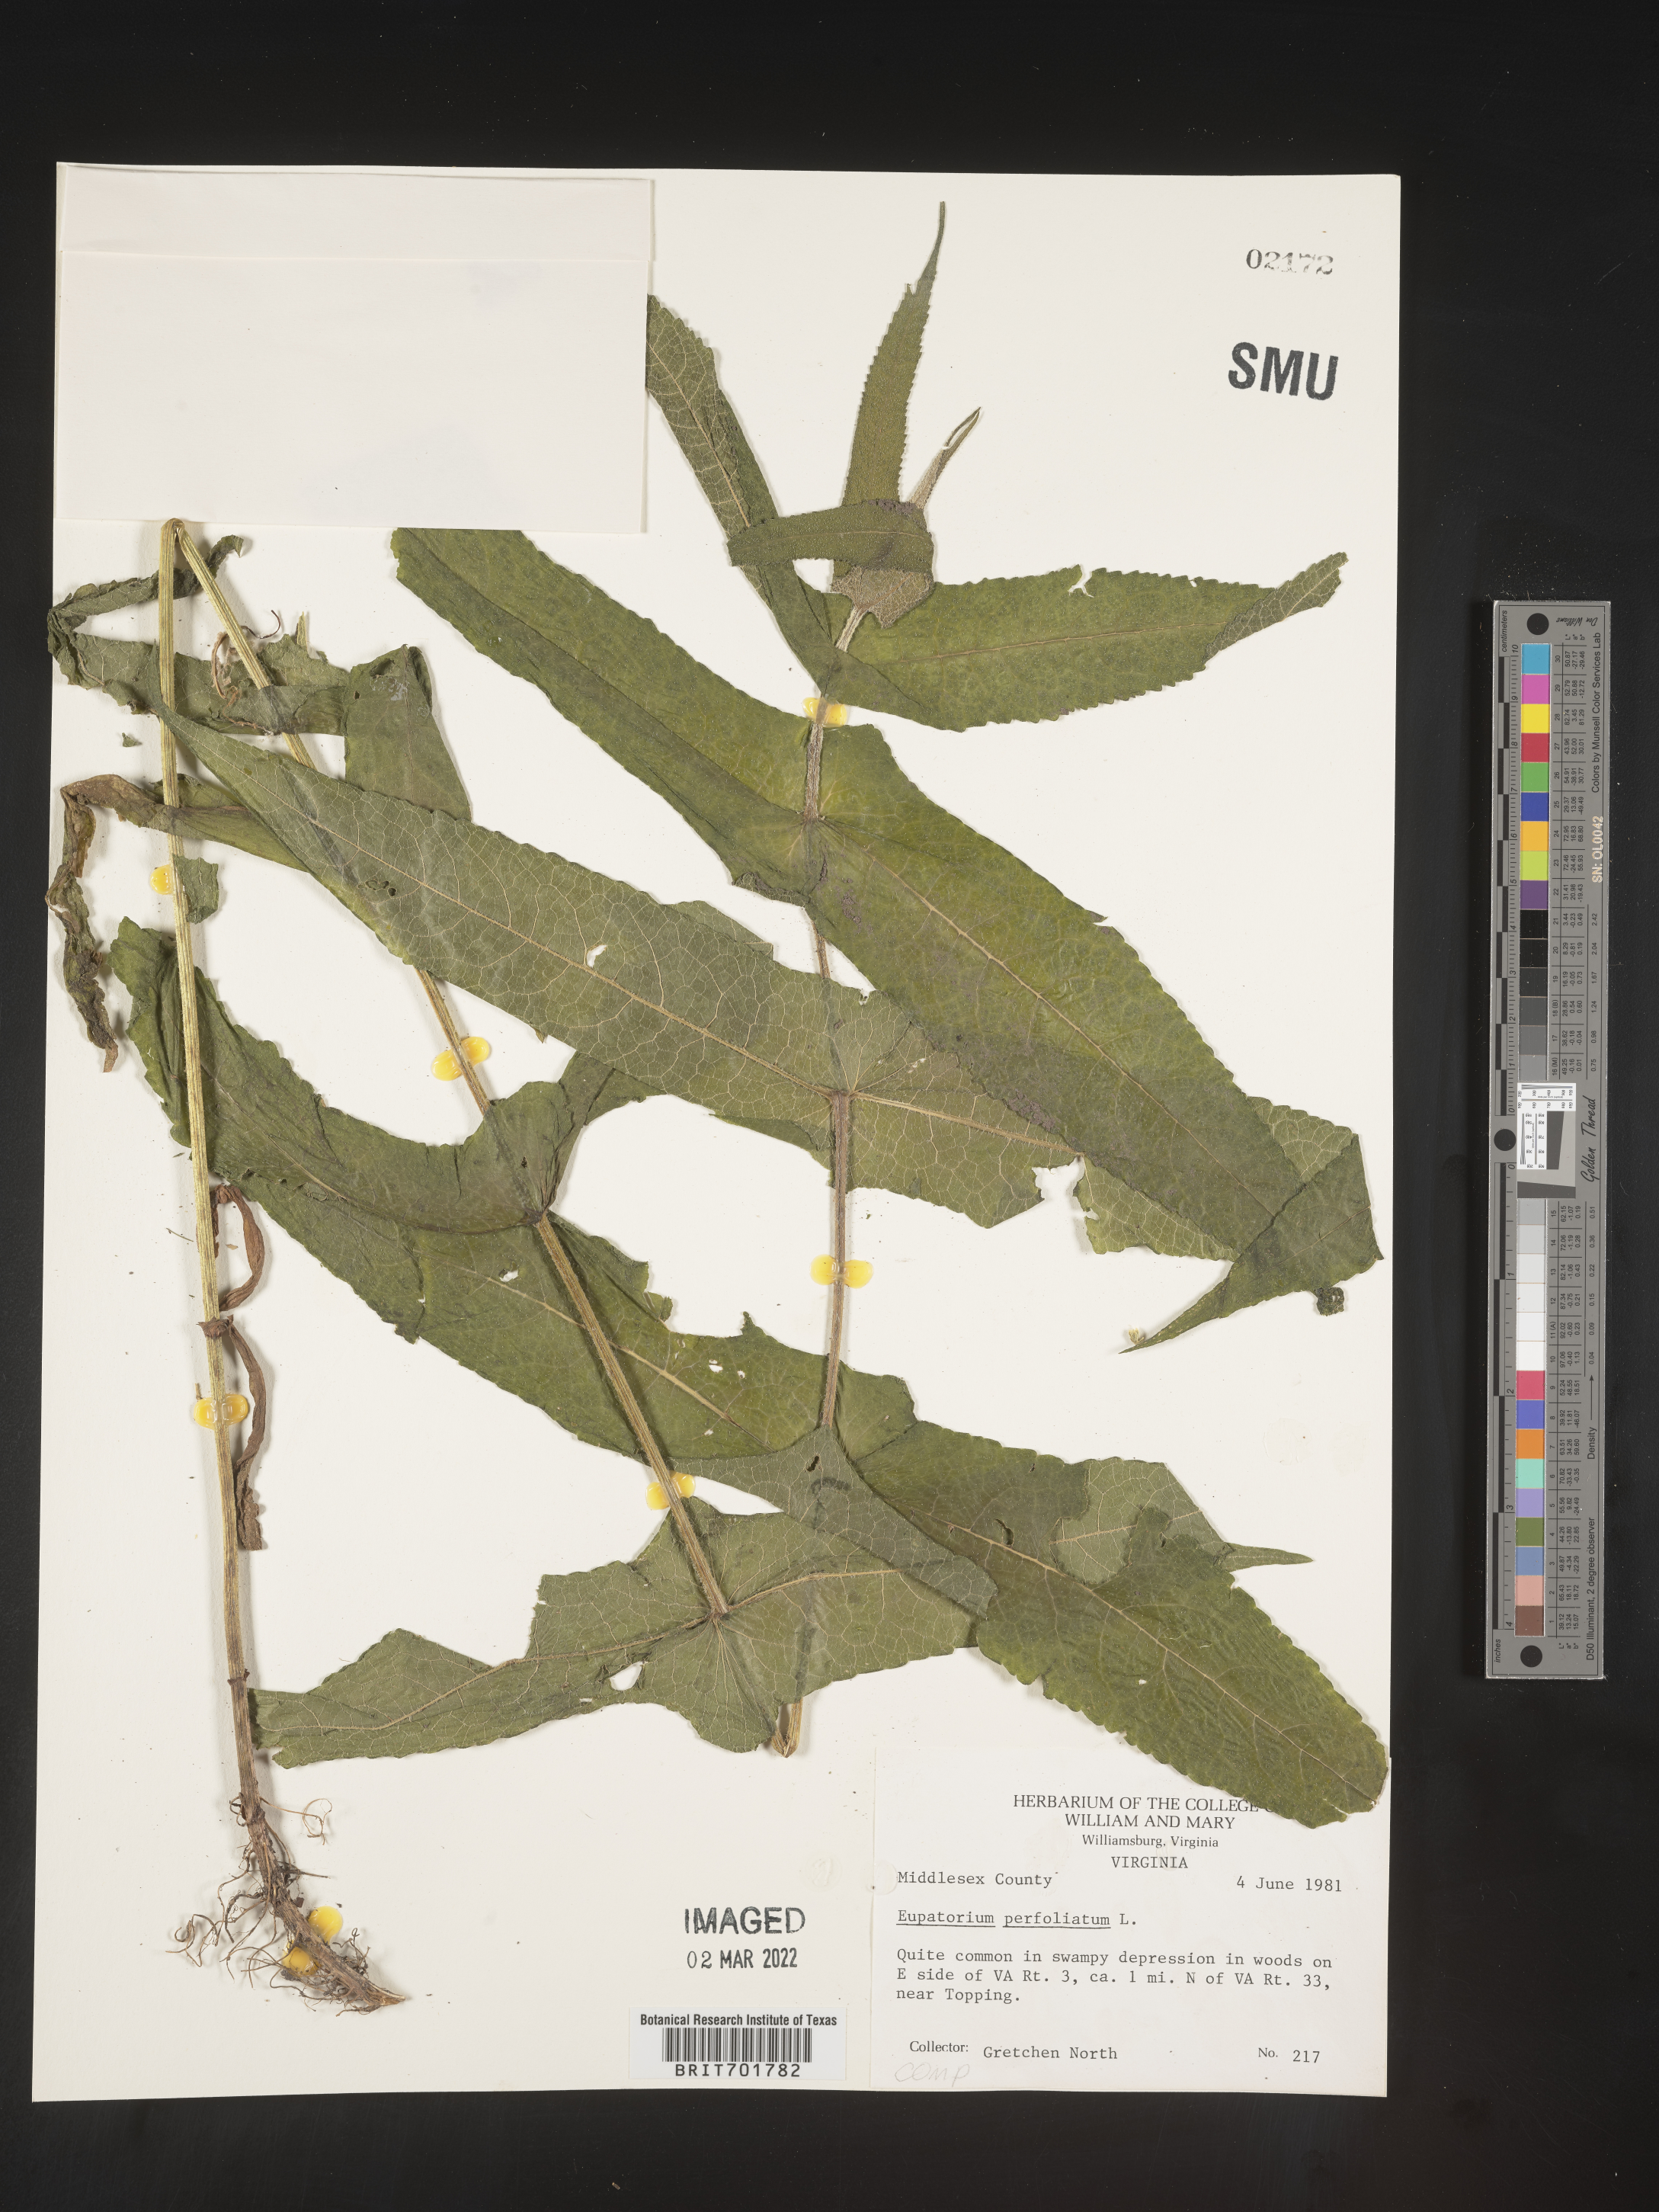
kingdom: Plantae
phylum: Tracheophyta
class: Magnoliopsida
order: Asterales
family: Asteraceae
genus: Eupatorium
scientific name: Eupatorium perfoliatum
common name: Boneset
